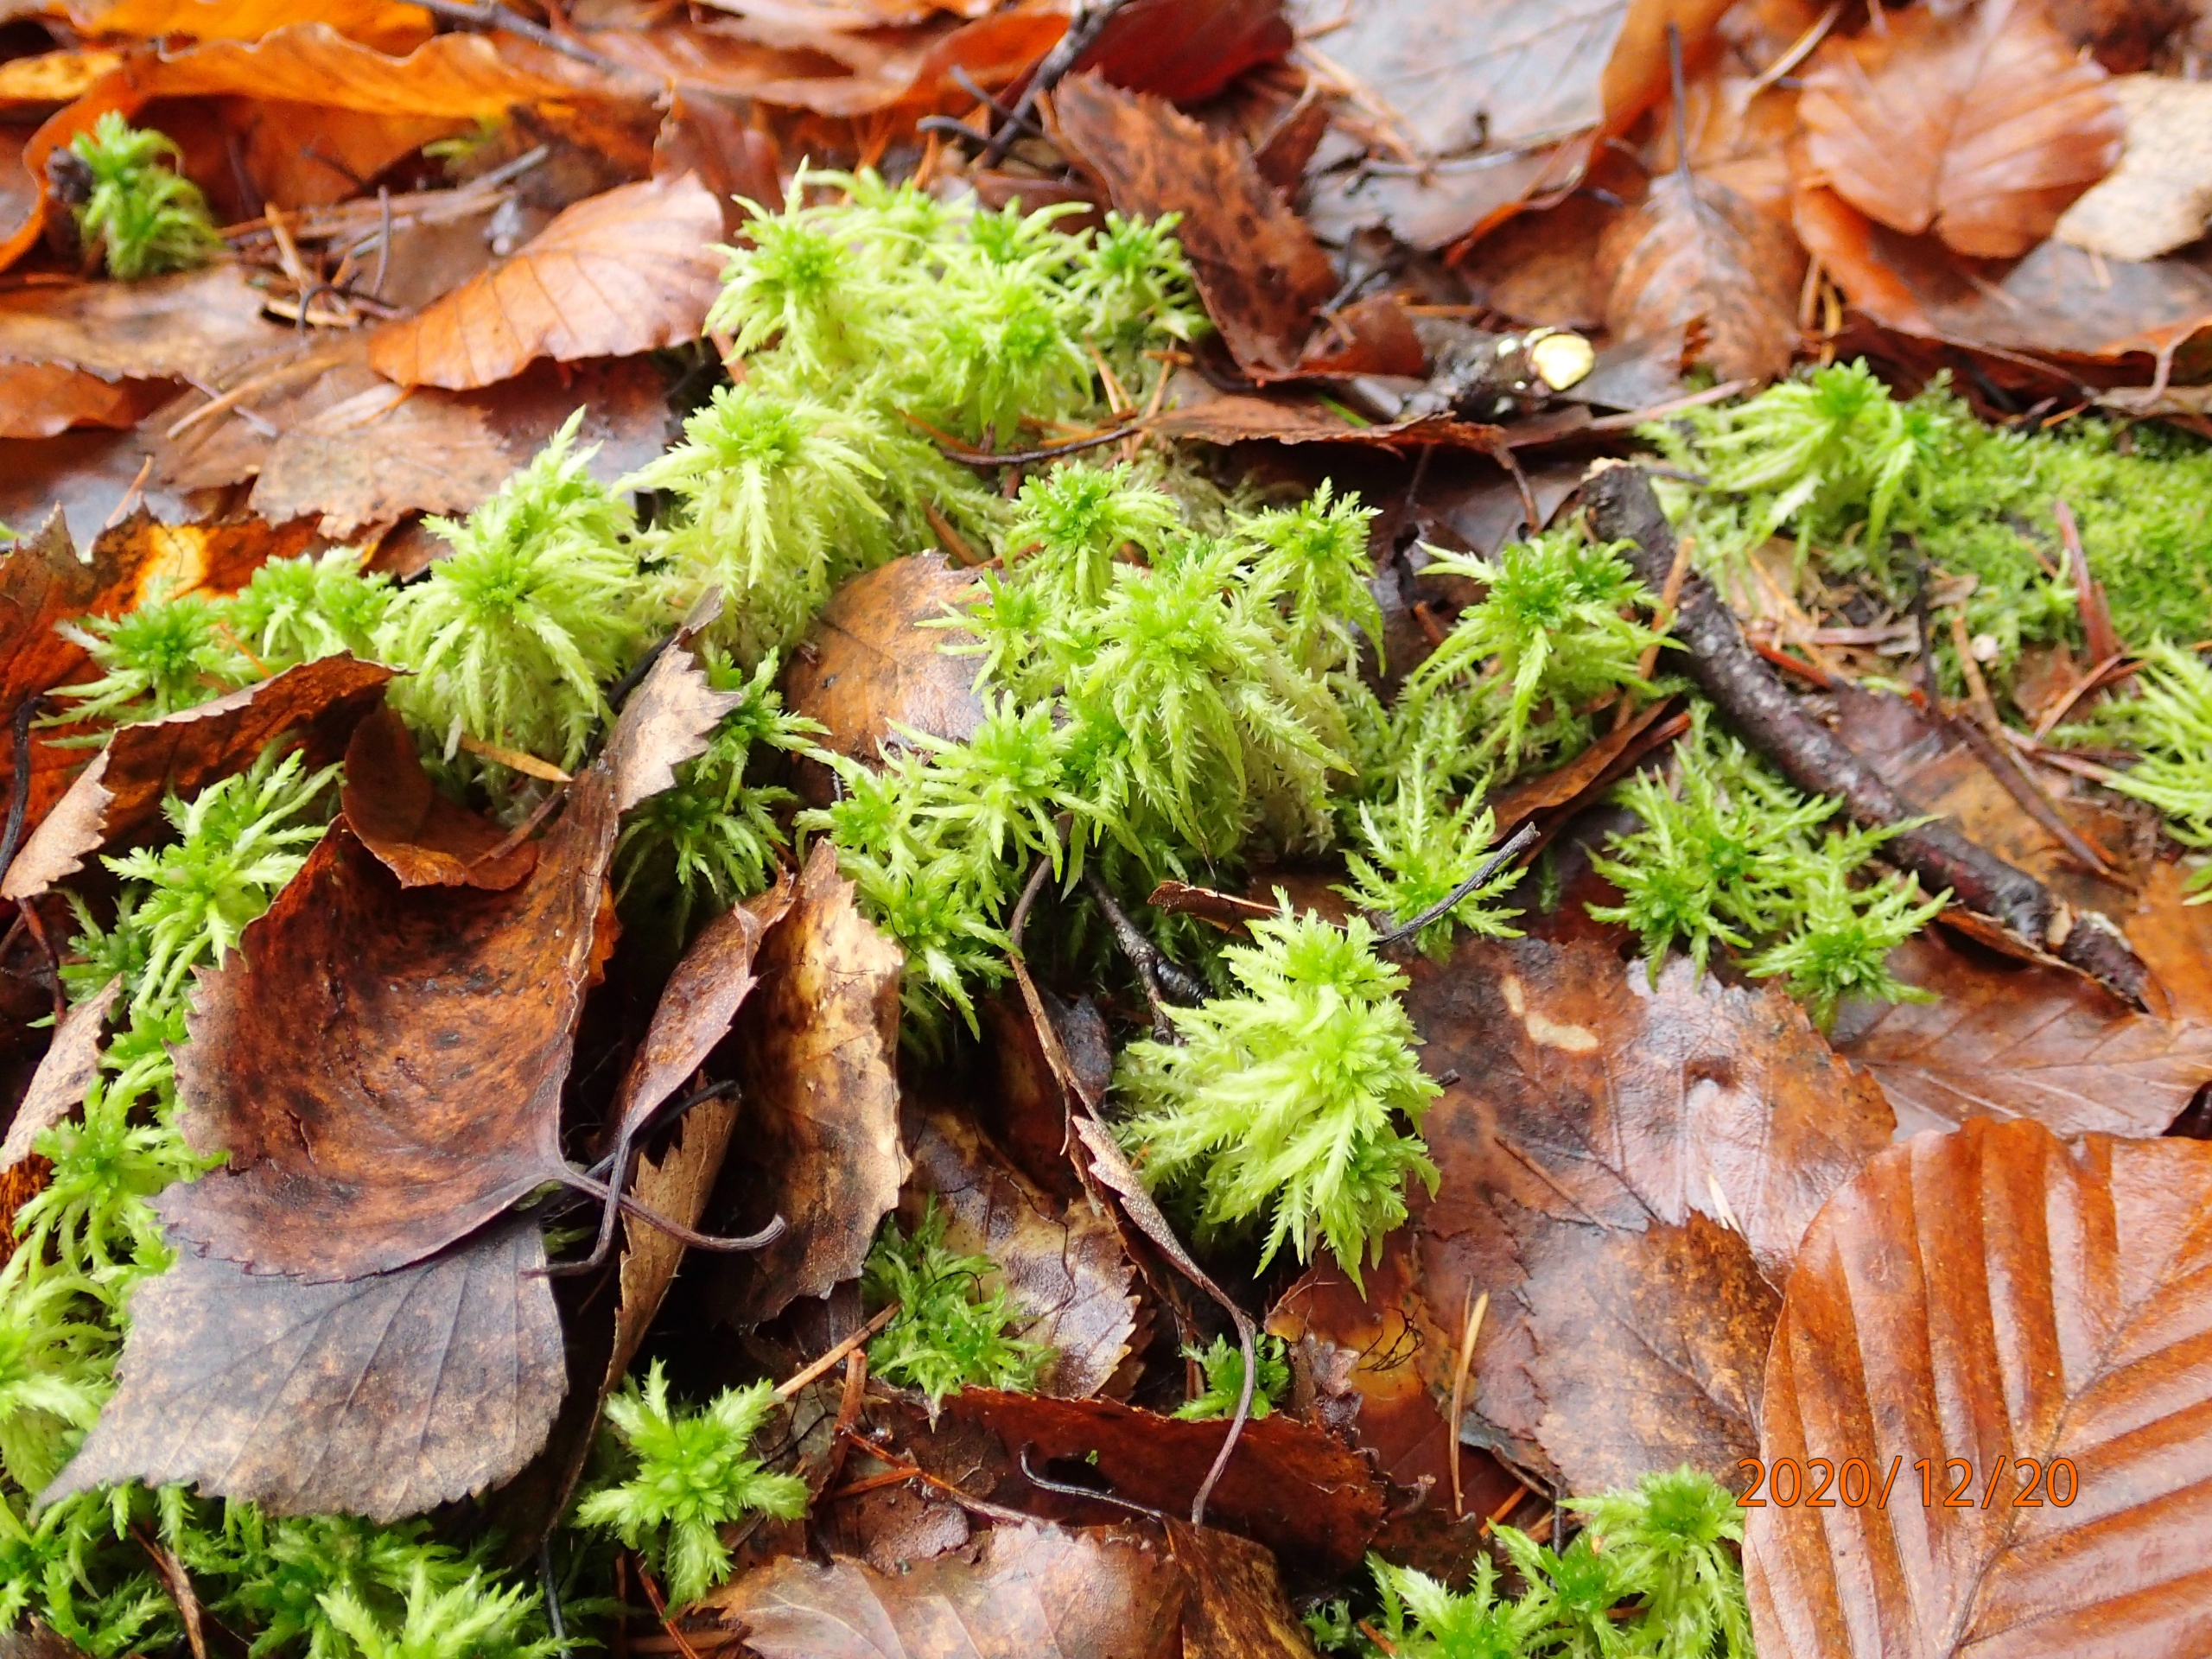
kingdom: Plantae
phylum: Bryophyta
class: Sphagnopsida
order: Sphagnales
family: Sphagnaceae
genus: Sphagnum
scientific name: Sphagnum squarrosum
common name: Udspærret tørvemos
